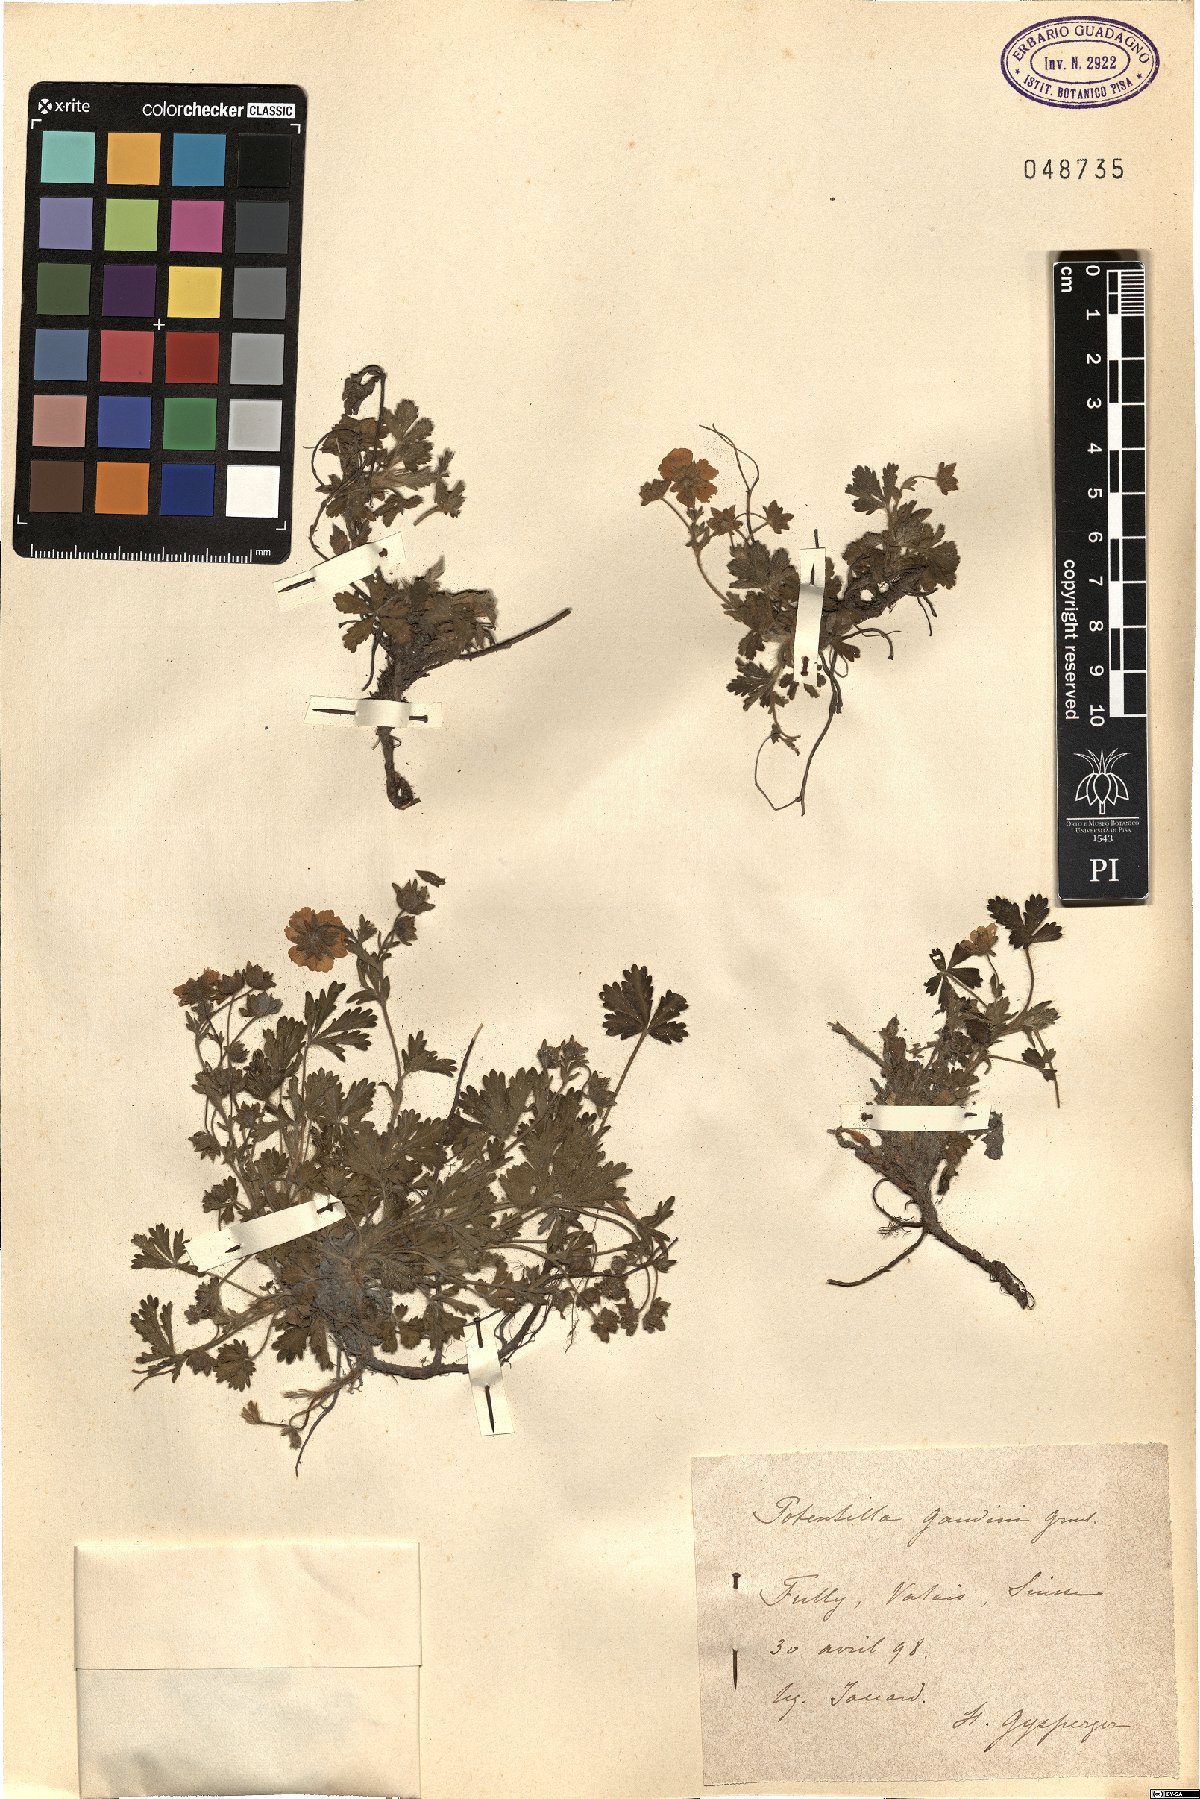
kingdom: Plantae
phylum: Tracheophyta
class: Magnoliopsida
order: Rosales
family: Rosaceae
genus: Potentilla
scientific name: Potentilla pusilla
